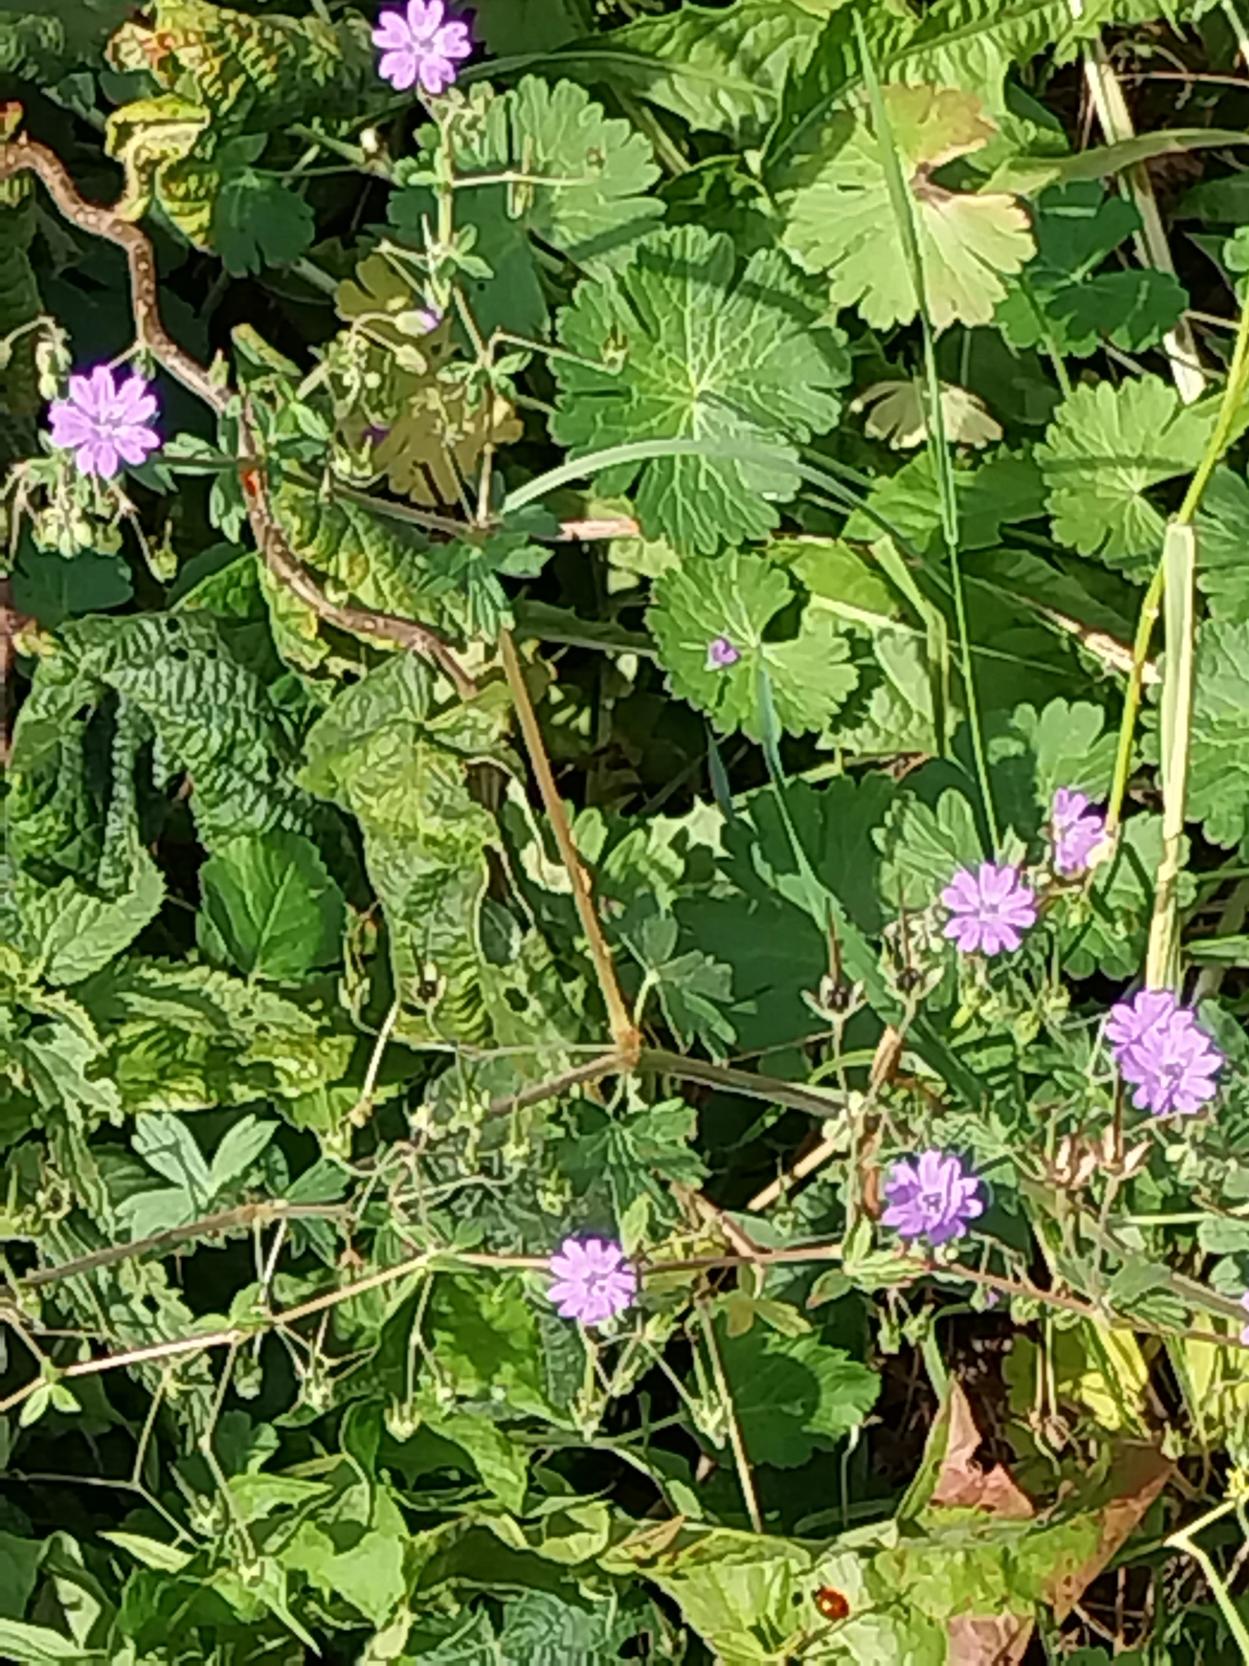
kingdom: Plantae
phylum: Tracheophyta
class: Magnoliopsida
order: Geraniales
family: Geraniaceae
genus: Geranium
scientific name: Geranium pyrenaicum
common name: Pyrenæisk storkenæb
